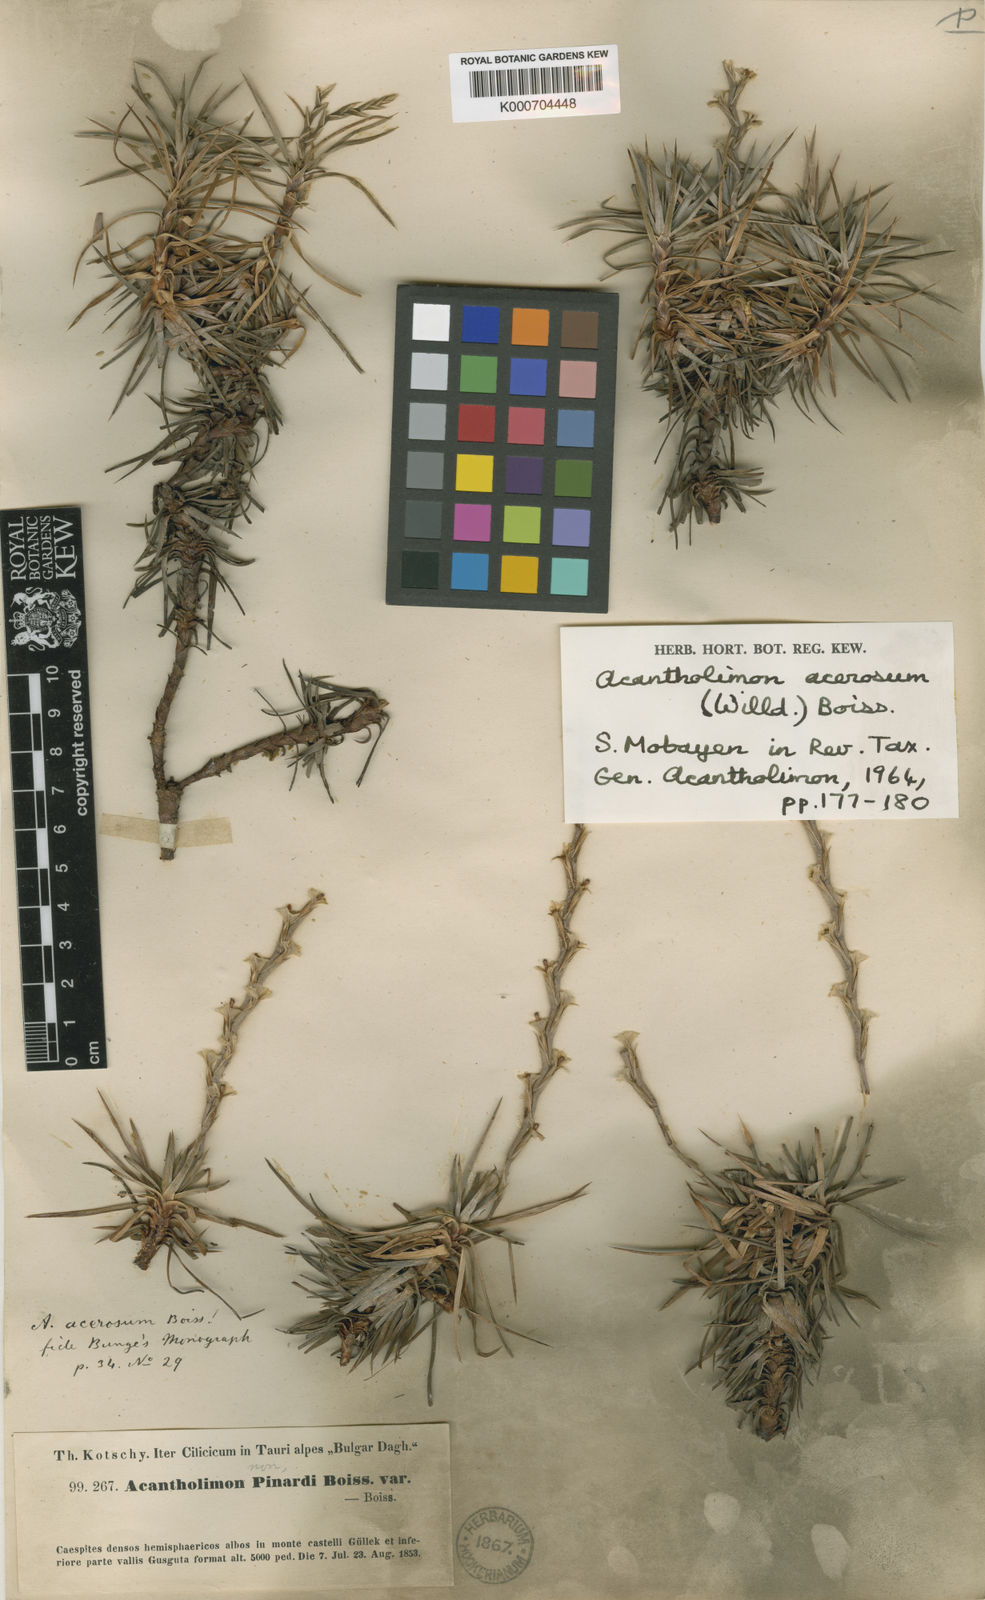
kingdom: Plantae
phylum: Tracheophyta
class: Magnoliopsida
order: Caryophyllales
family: Plumbaginaceae
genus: Acantholimon
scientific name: Acantholimon acerosum
